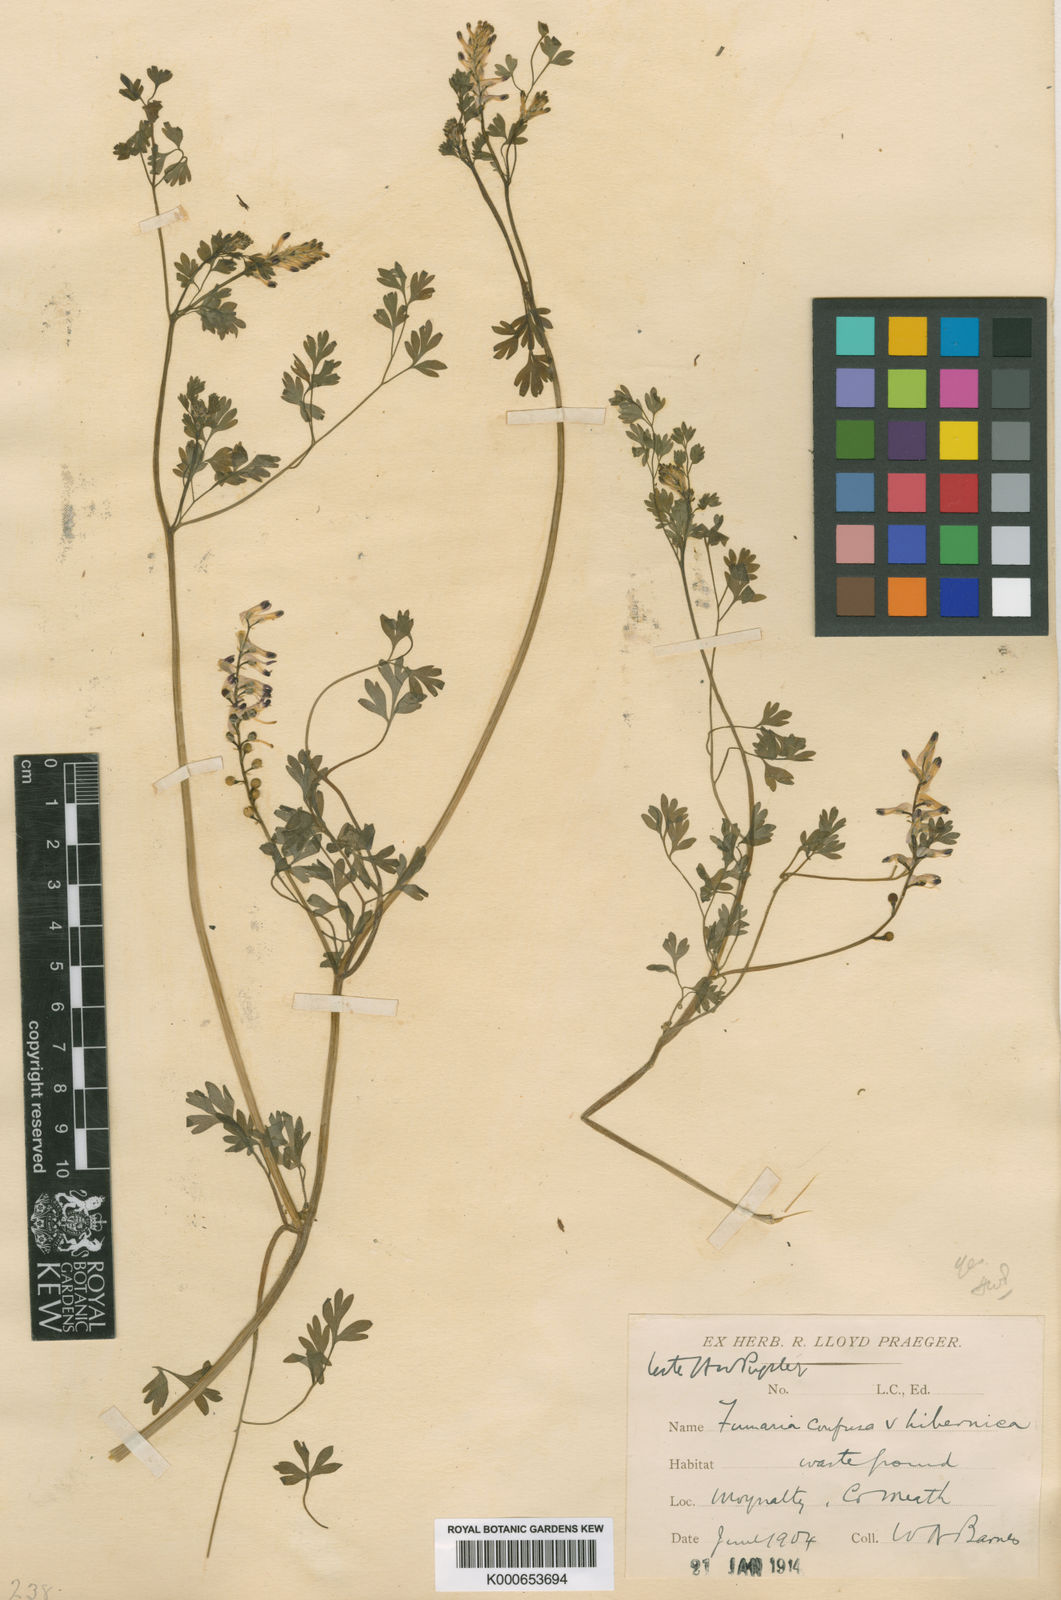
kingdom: Plantae
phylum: Tracheophyta
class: Magnoliopsida
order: Ranunculales
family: Papaveraceae
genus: Fumaria
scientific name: Fumaria bastardii
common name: Tall ramping-fumitory
